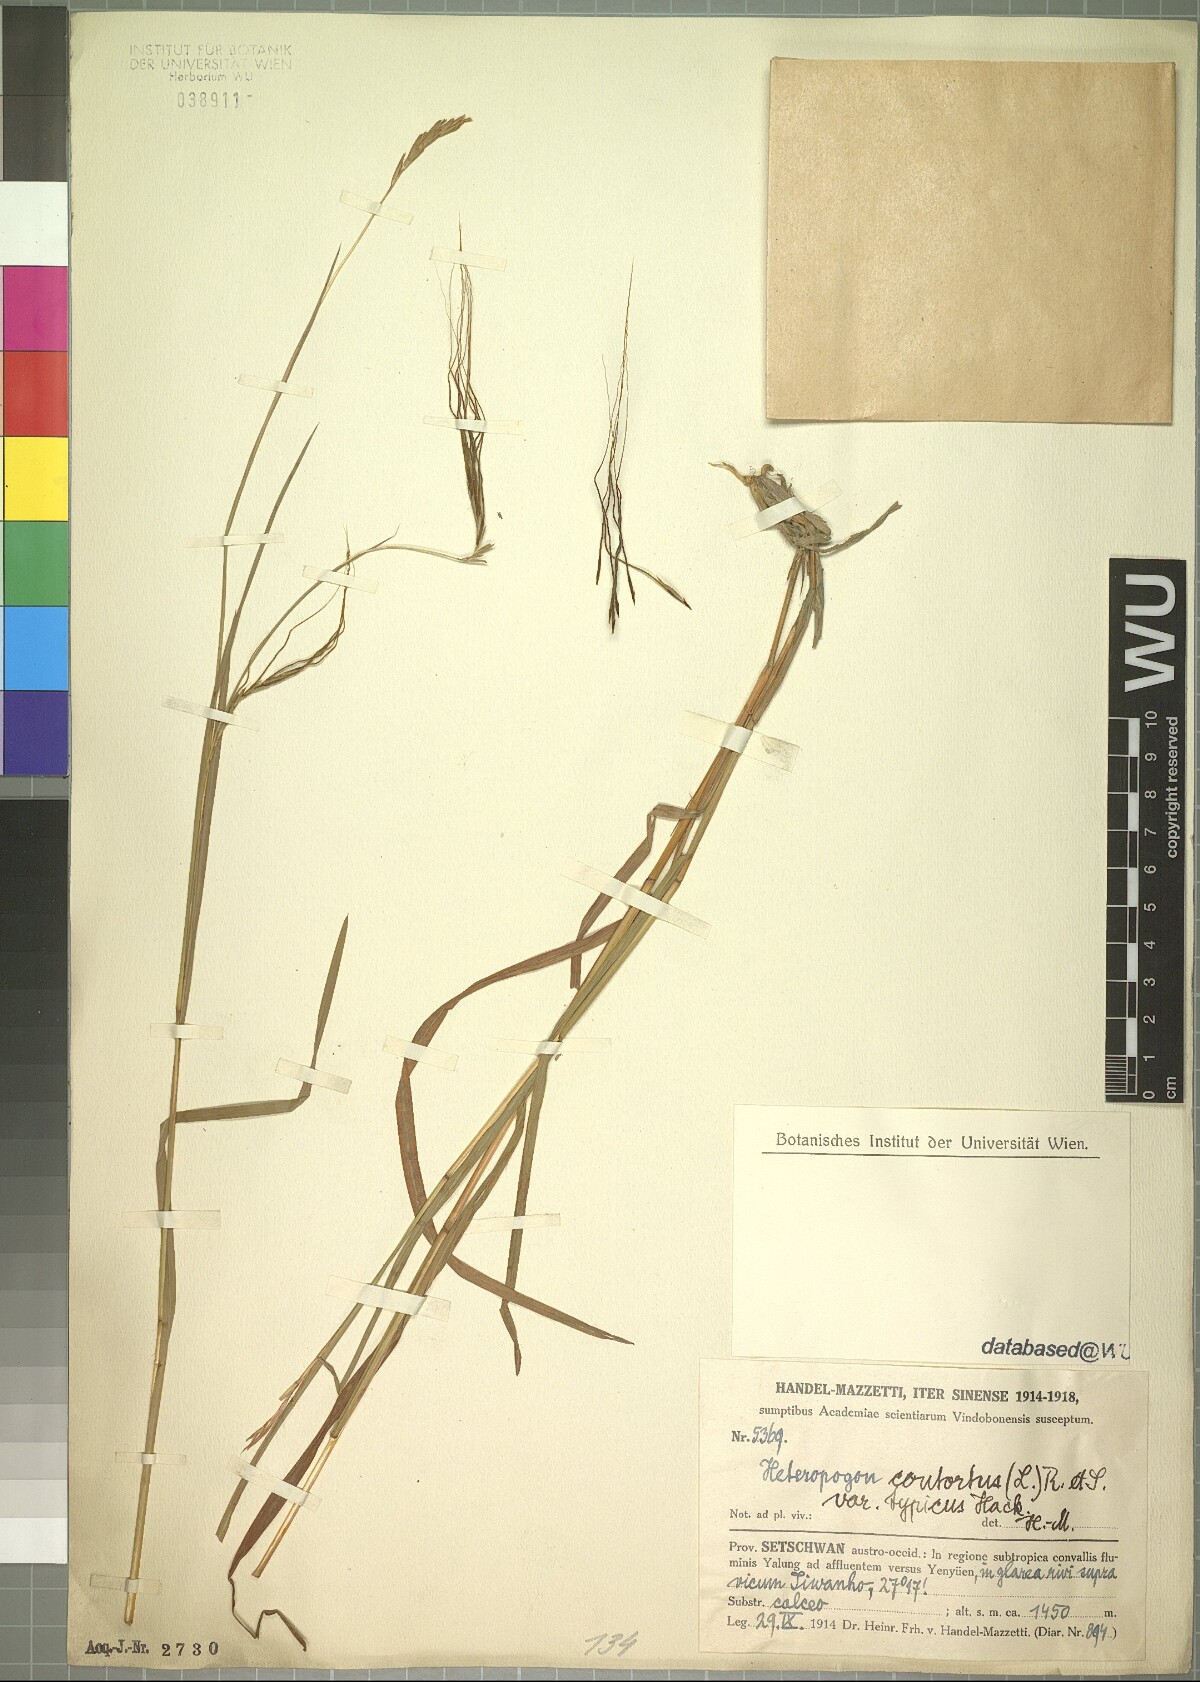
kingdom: Plantae
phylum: Tracheophyta
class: Liliopsida
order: Poales
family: Poaceae
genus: Heteropogon
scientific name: Heteropogon contortus
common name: Tanglehead
